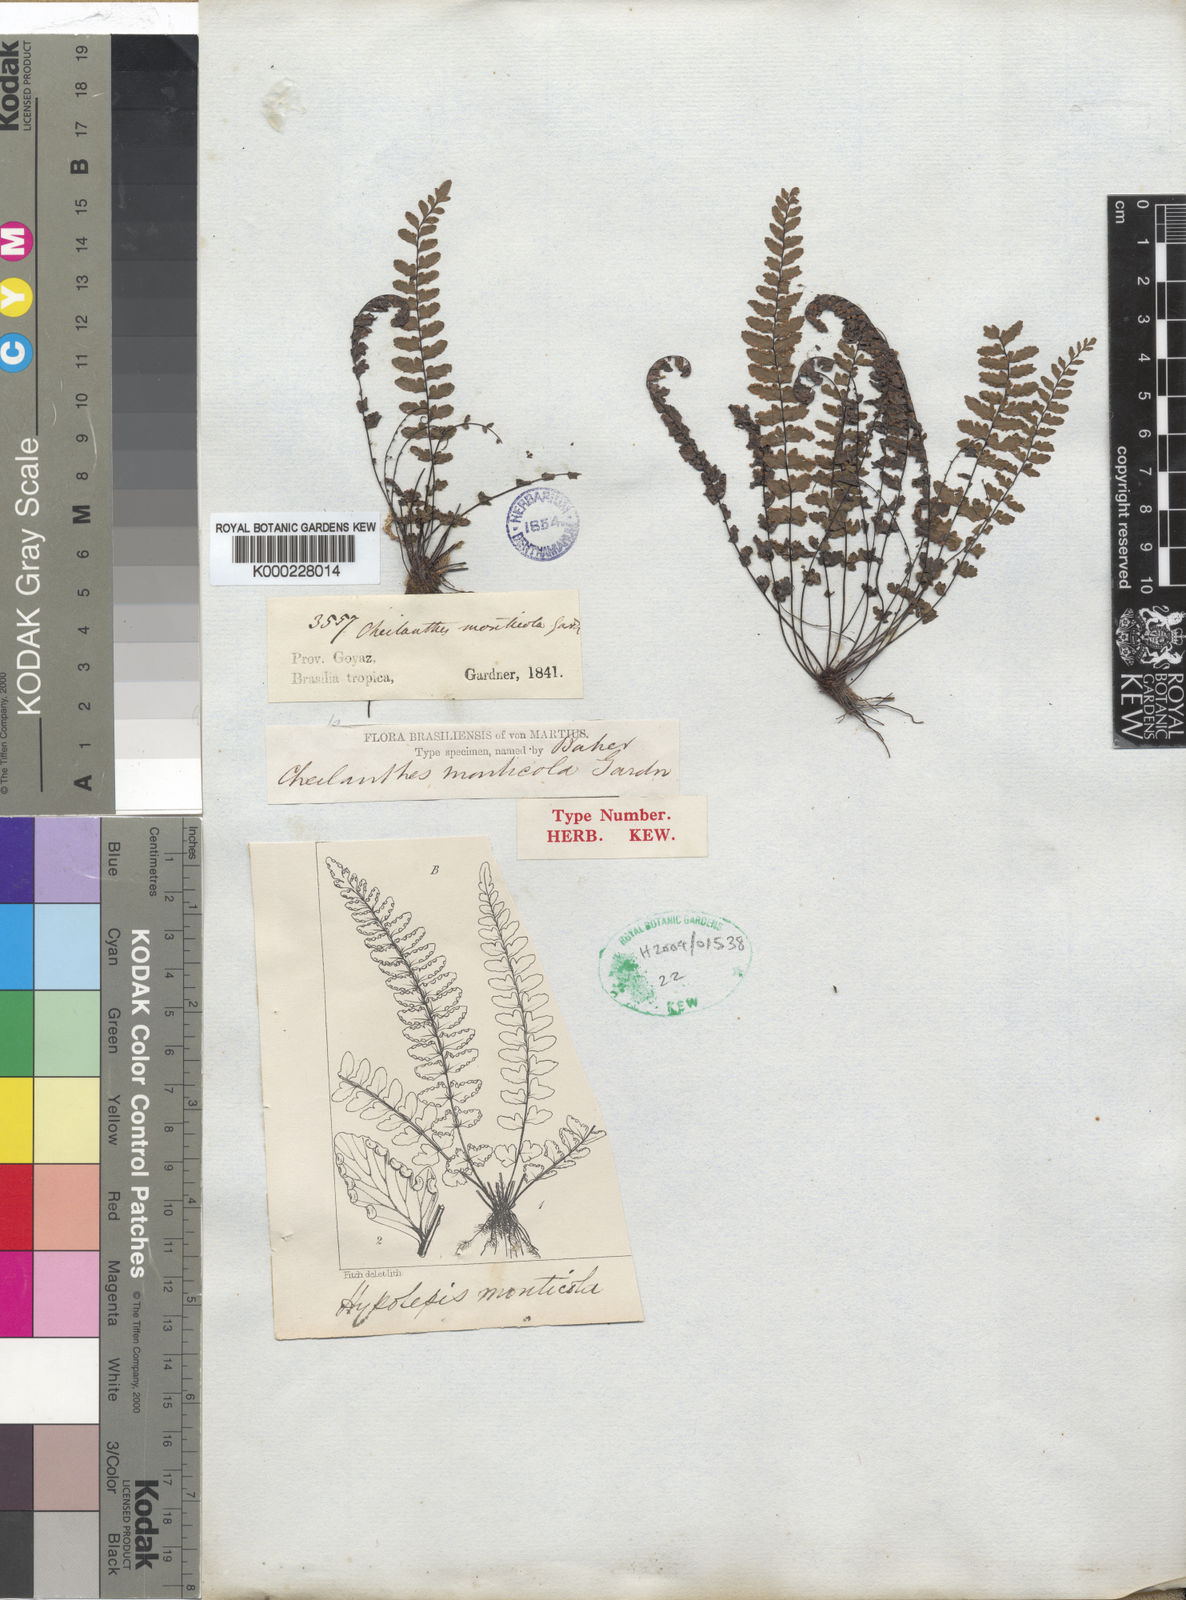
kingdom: Plantae
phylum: Tracheophyta
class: Polypodiopsida
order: Polypodiales
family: Pteridaceae
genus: Adiantopsis
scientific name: Adiantopsis monticola
